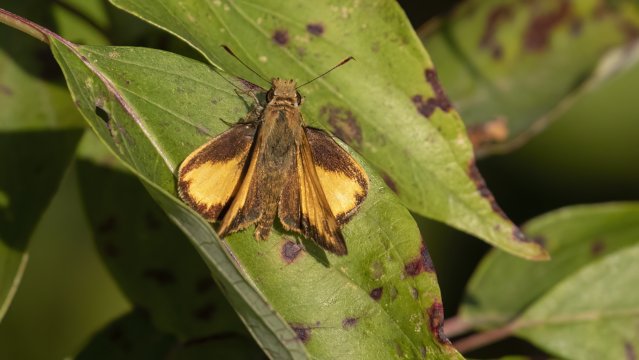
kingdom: Animalia
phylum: Arthropoda
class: Insecta
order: Lepidoptera
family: Hesperiidae
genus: Lon
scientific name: Lon zabulon
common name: Zabulon Skipper
